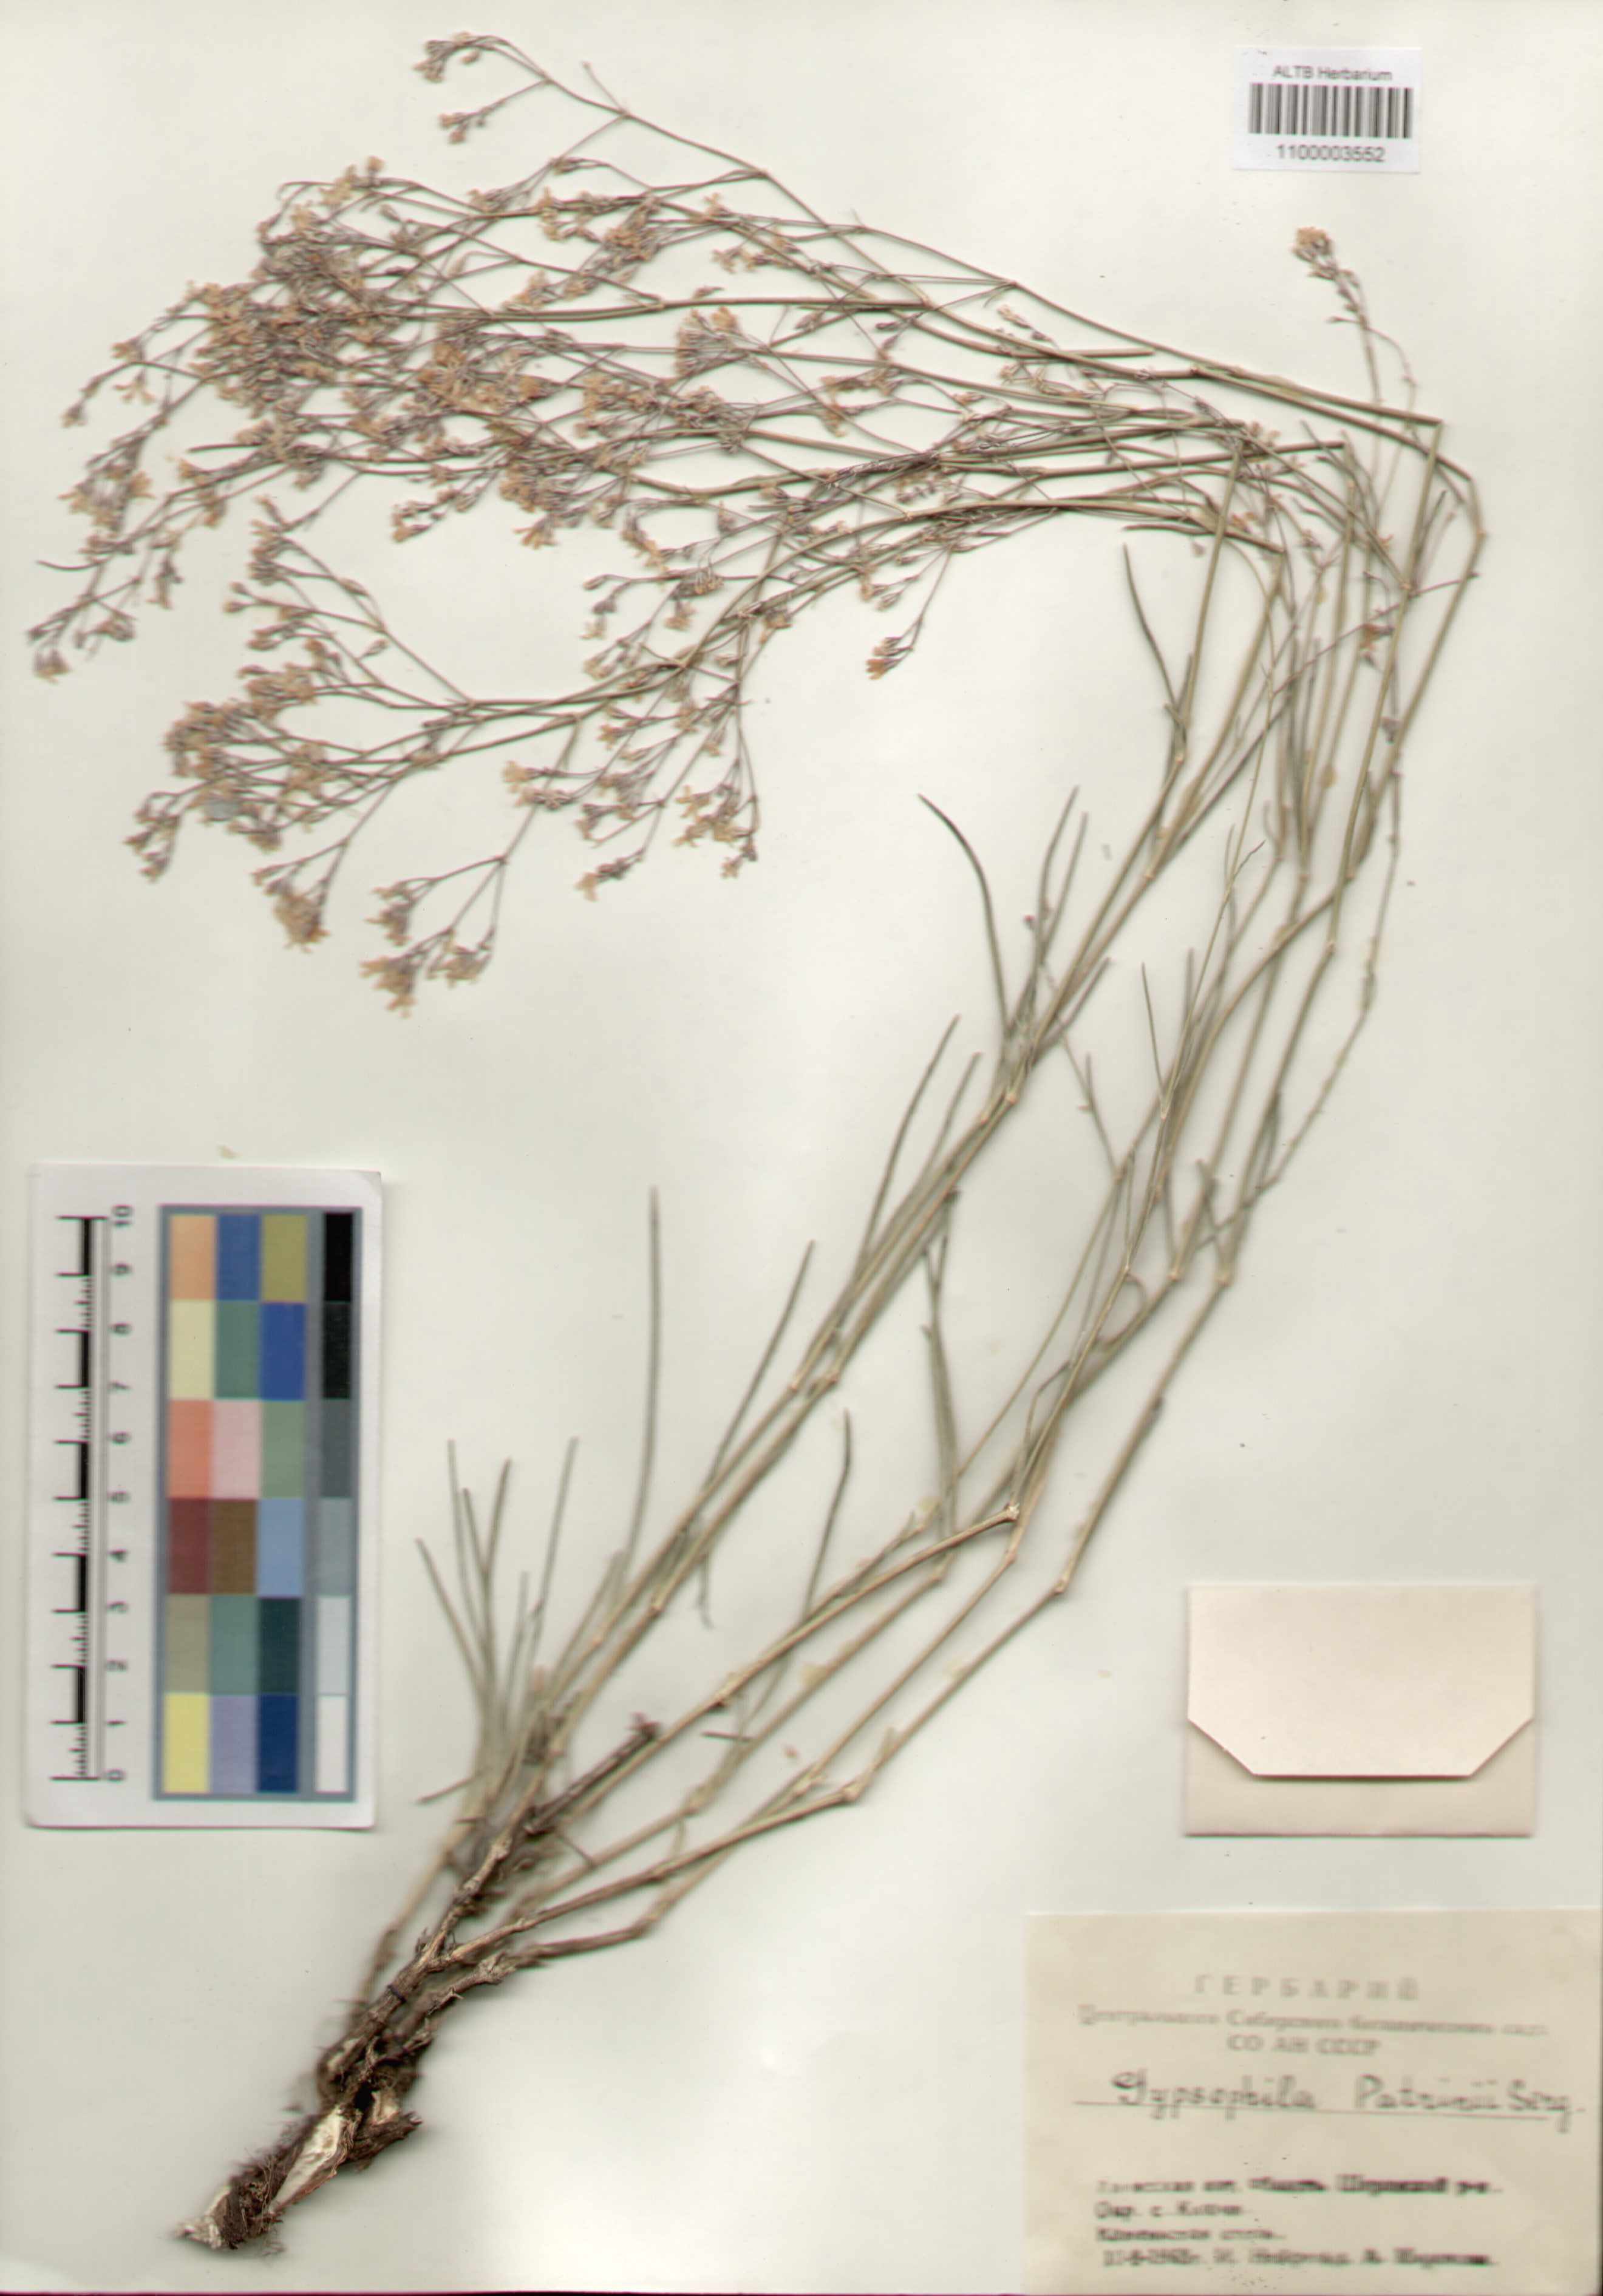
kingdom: Plantae
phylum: Tracheophyta
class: Magnoliopsida
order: Caryophyllales
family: Caryophyllaceae
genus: Gypsophila
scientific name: Gypsophila patrinii
